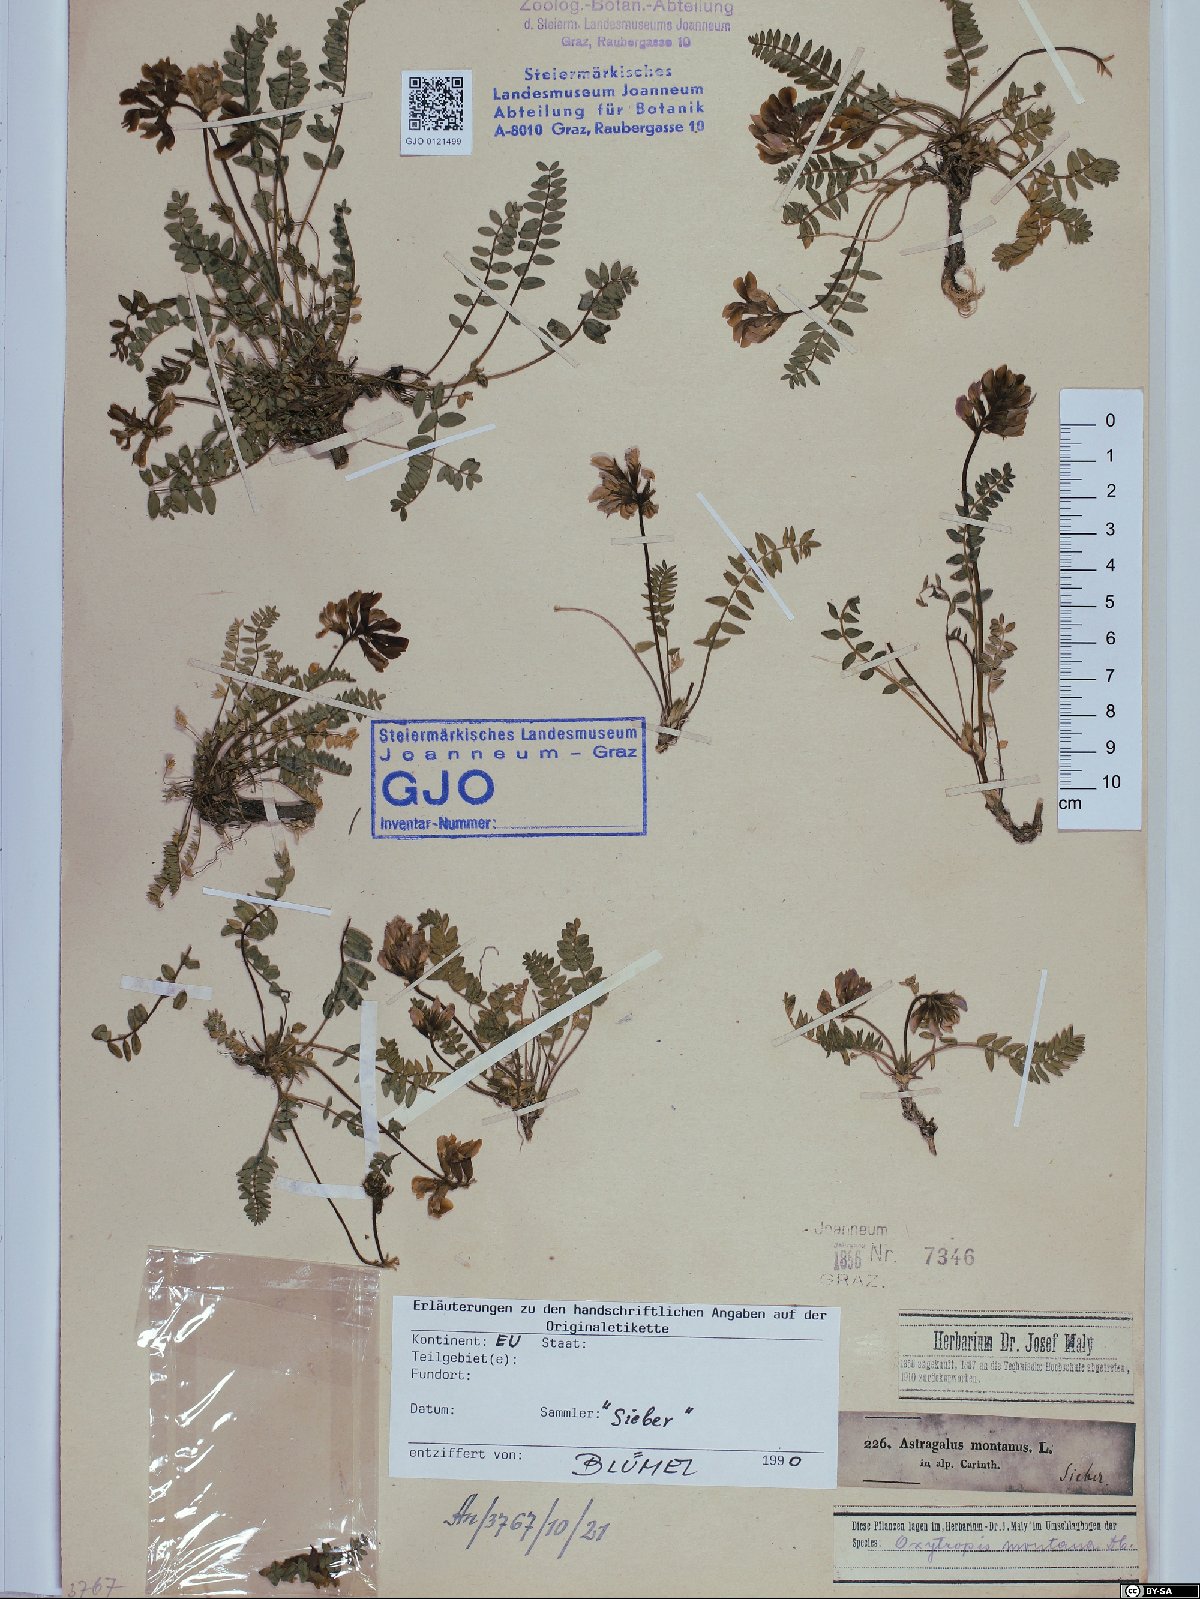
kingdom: Plantae
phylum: Tracheophyta
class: Magnoliopsida
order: Fabales
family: Fabaceae
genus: Oxytropis
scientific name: Oxytropis montana
